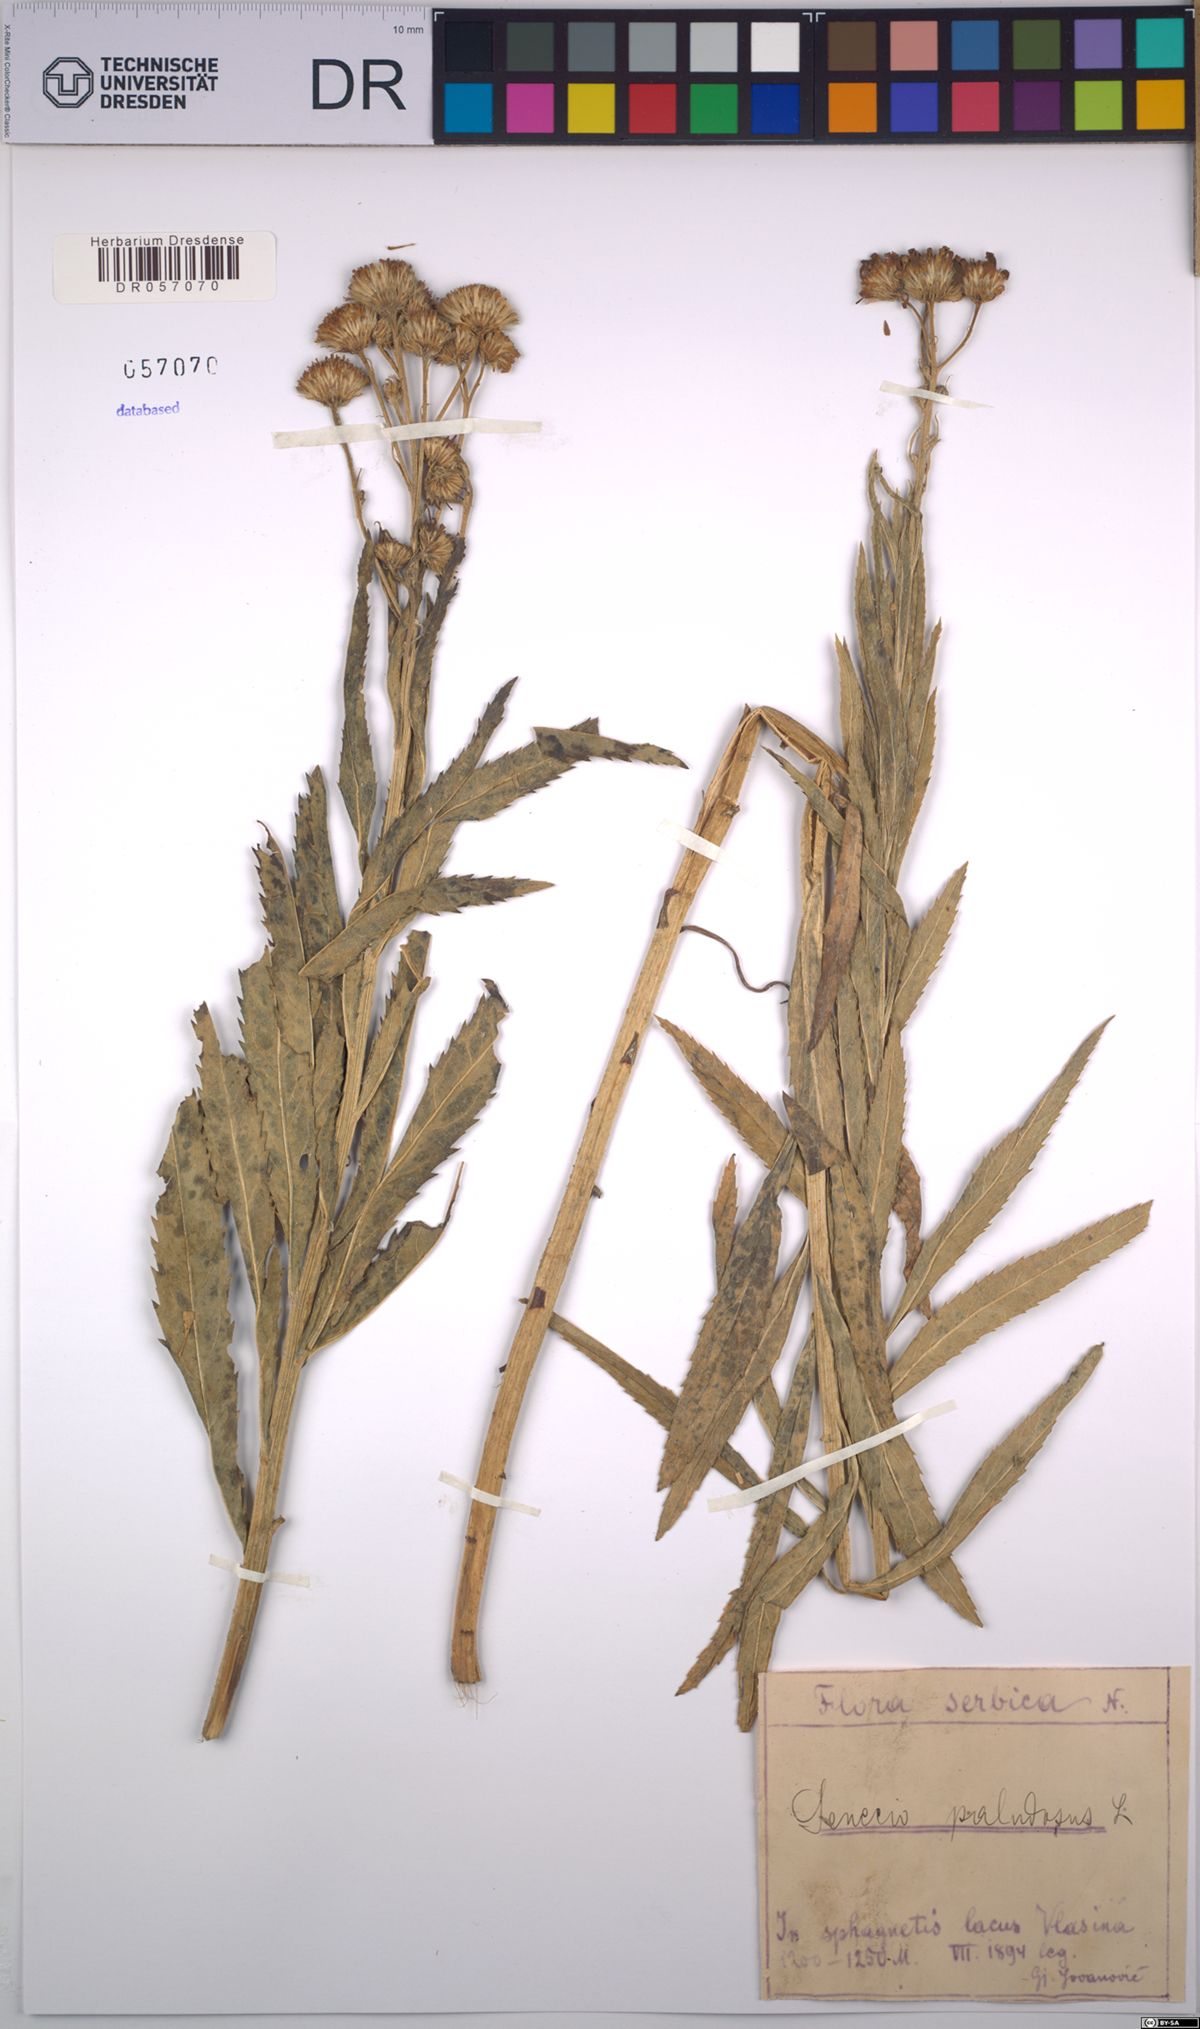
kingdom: Plantae
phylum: Tracheophyta
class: Magnoliopsida
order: Asterales
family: Asteraceae
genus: Jacobaea
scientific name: Jacobaea paludosa
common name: Fen ragwort
